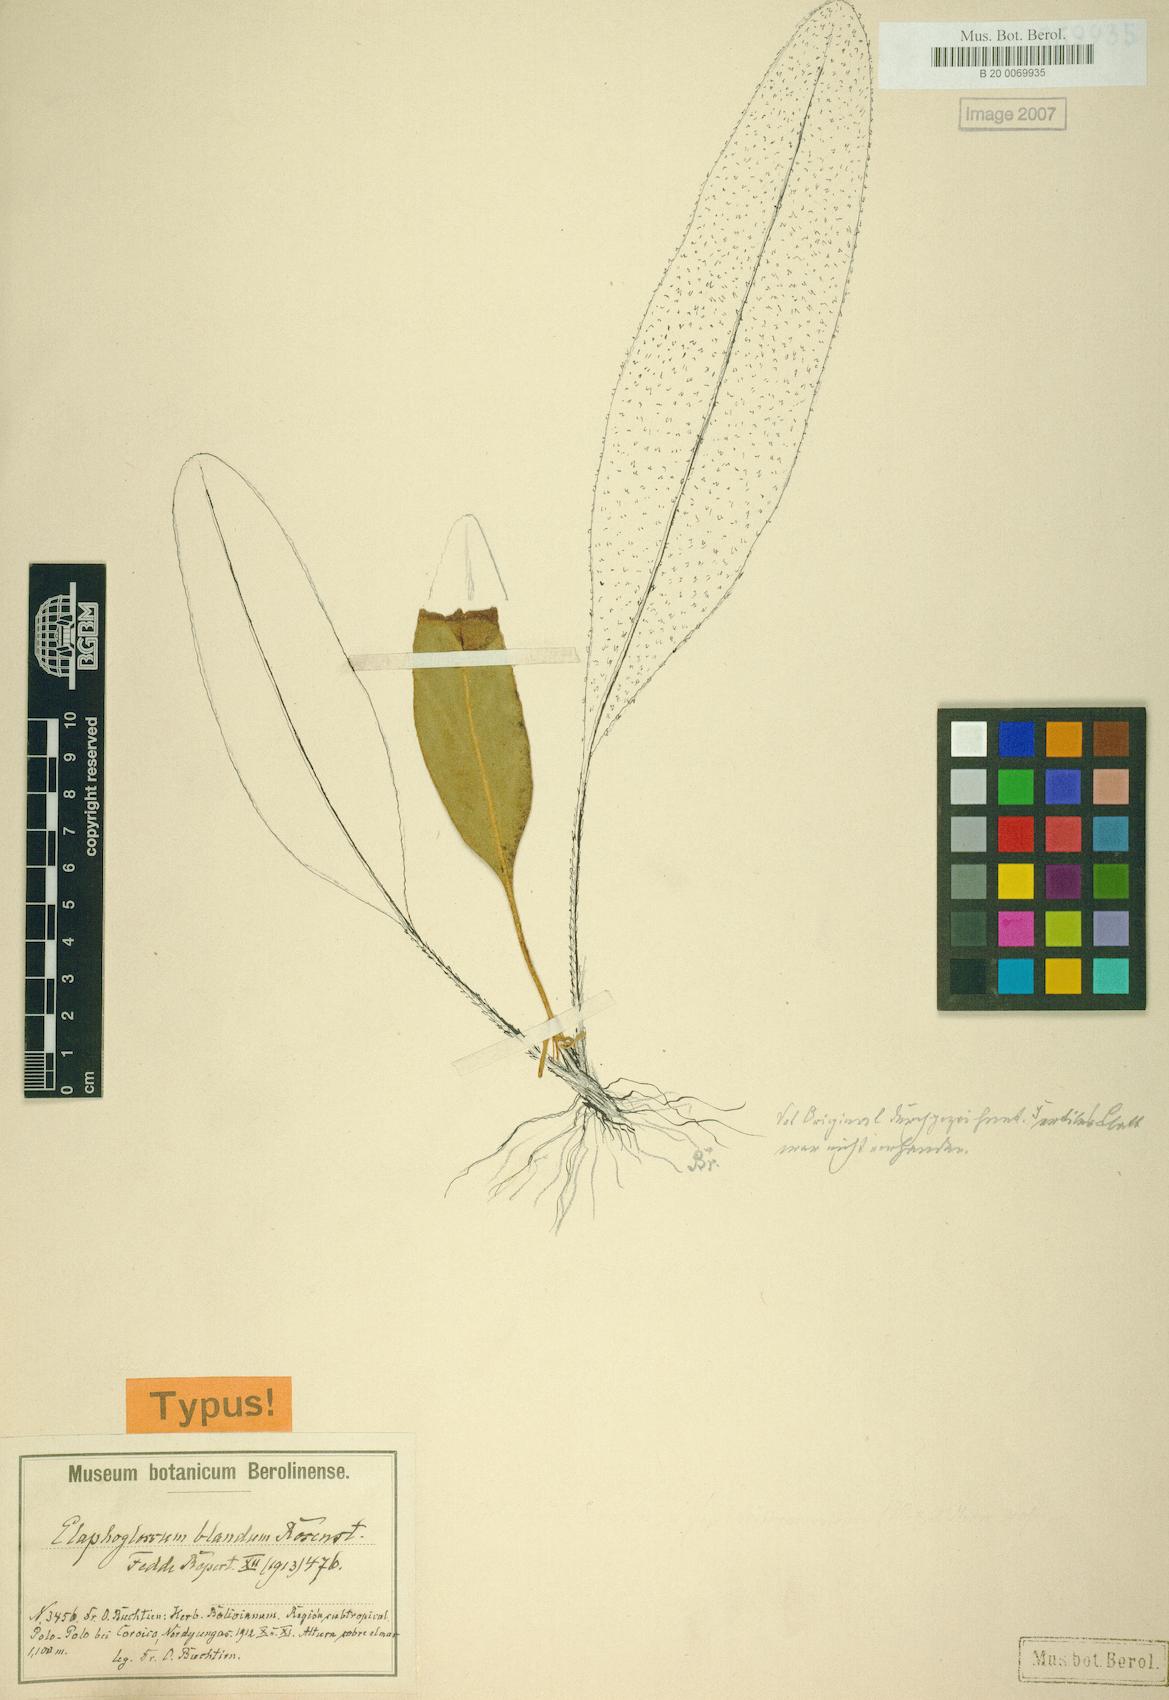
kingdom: Plantae
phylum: Tracheophyta
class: Polypodiopsida
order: Polypodiales
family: Dryopteridaceae
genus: Elaphoglossum
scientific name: Elaphoglossum bellermannianum
